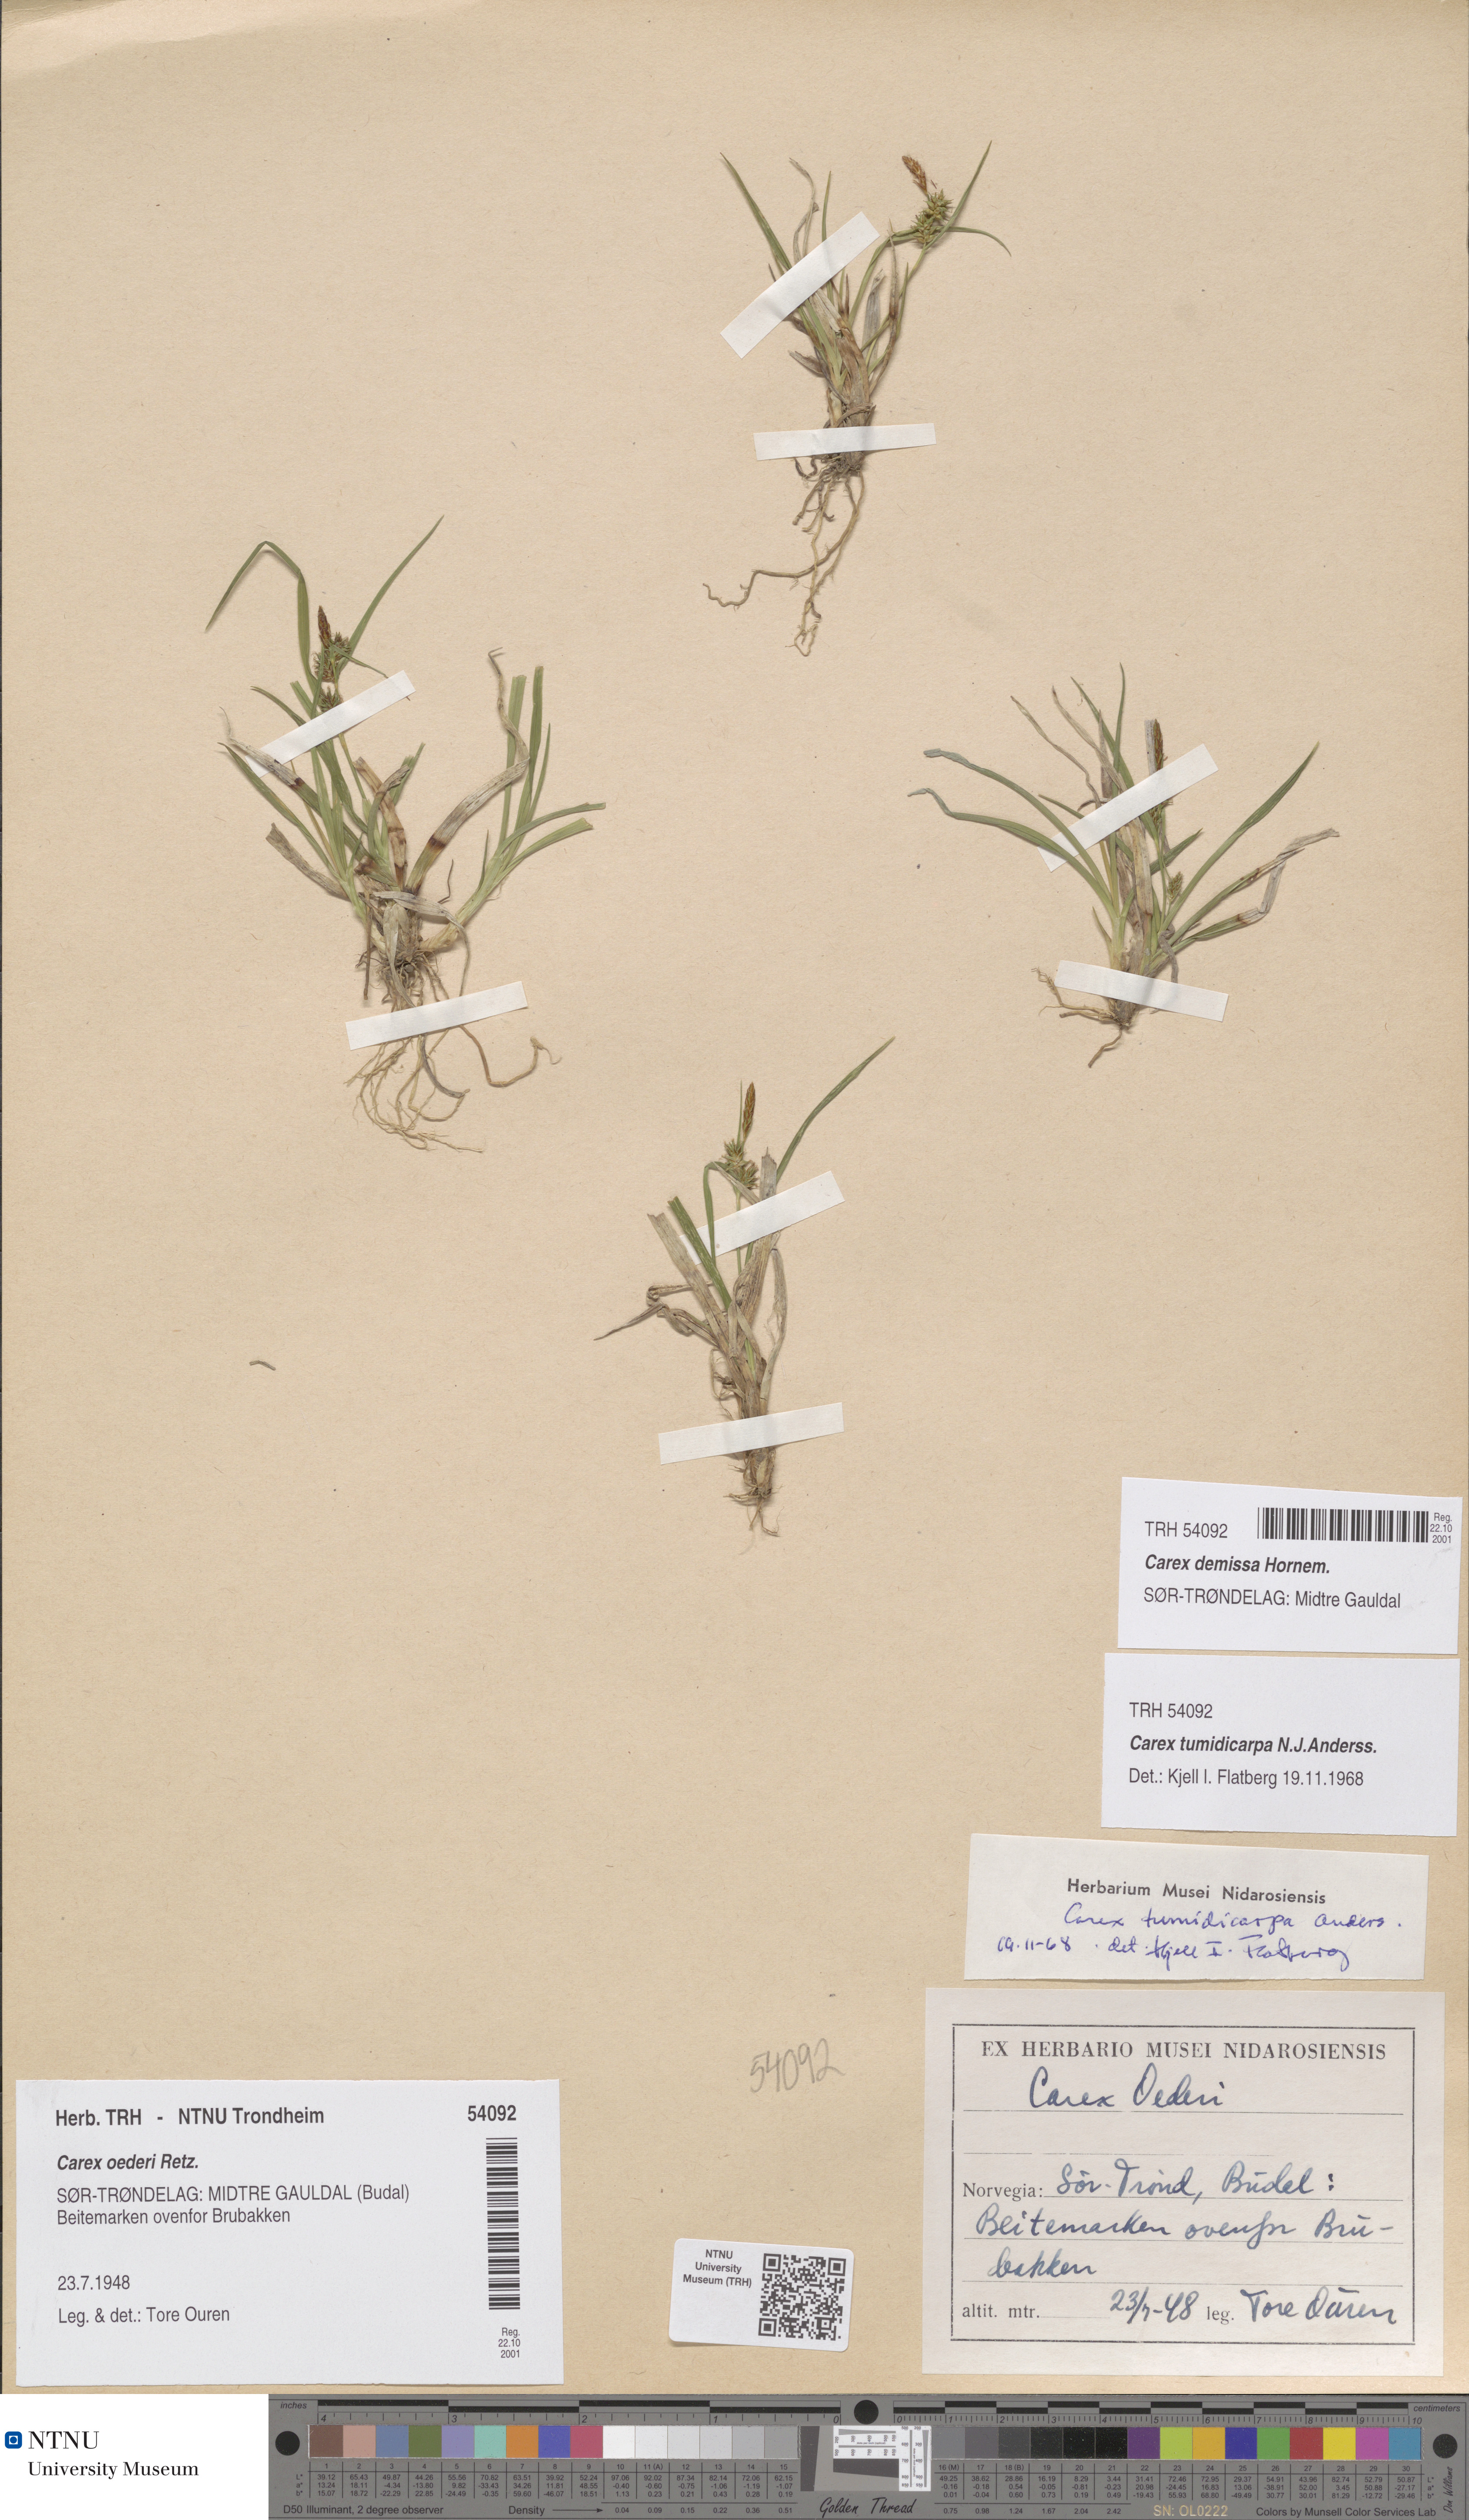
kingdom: Plantae
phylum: Tracheophyta
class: Liliopsida
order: Poales
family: Cyperaceae
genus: Carex
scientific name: Carex demissa
